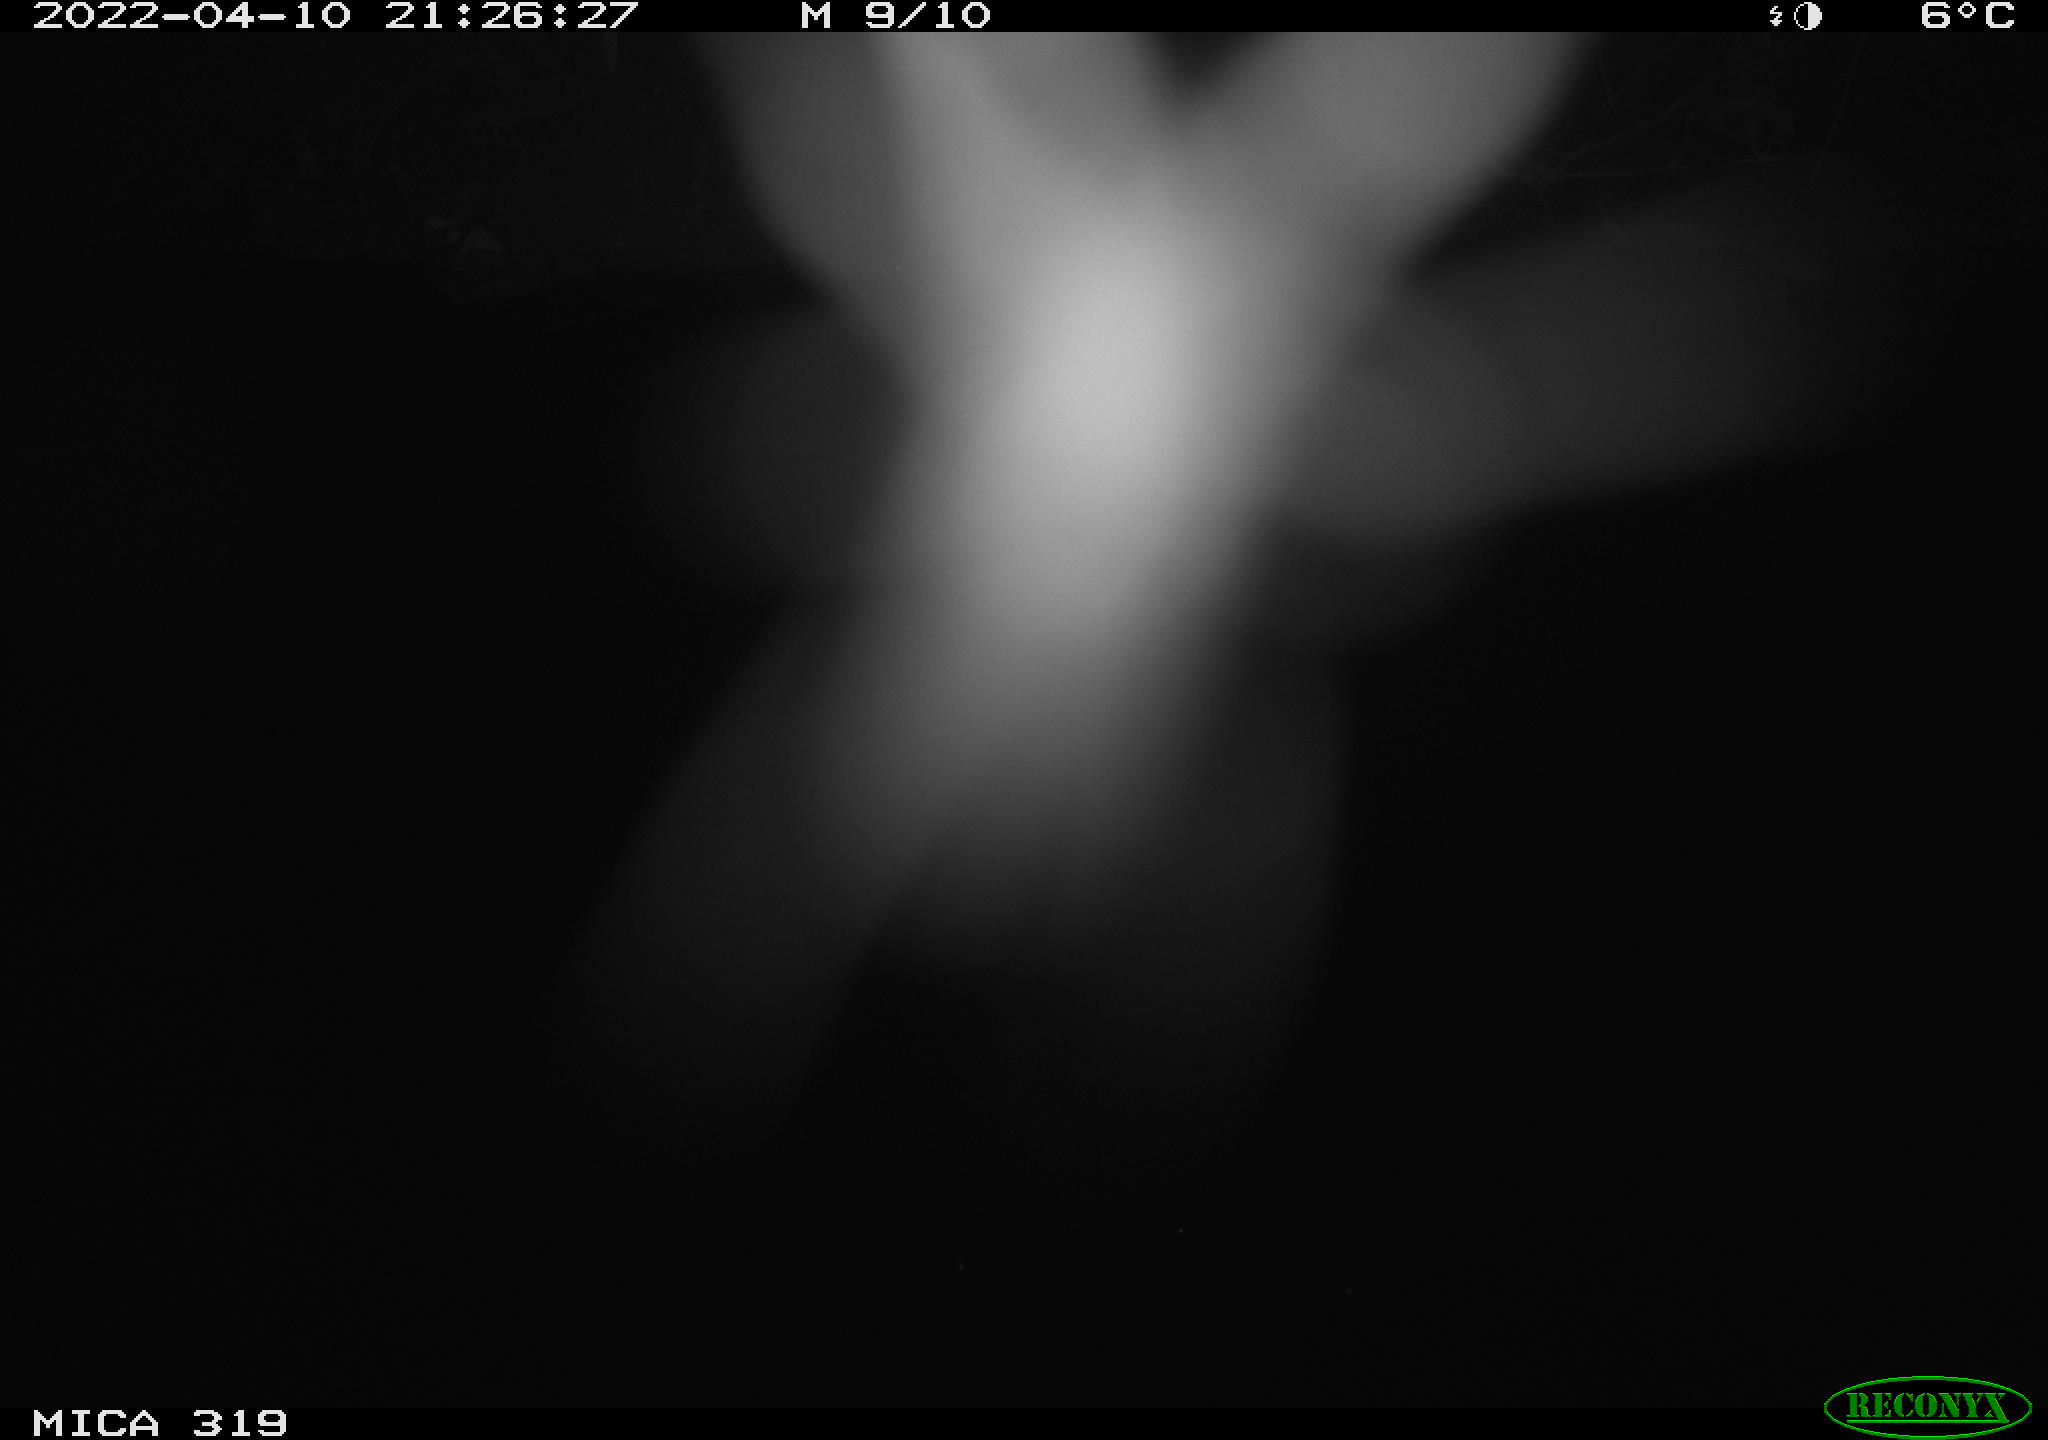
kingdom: Animalia
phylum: Chordata
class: Aves
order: Anseriformes
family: Anatidae
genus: Anas
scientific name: Anas platyrhynchos
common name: Mallard
